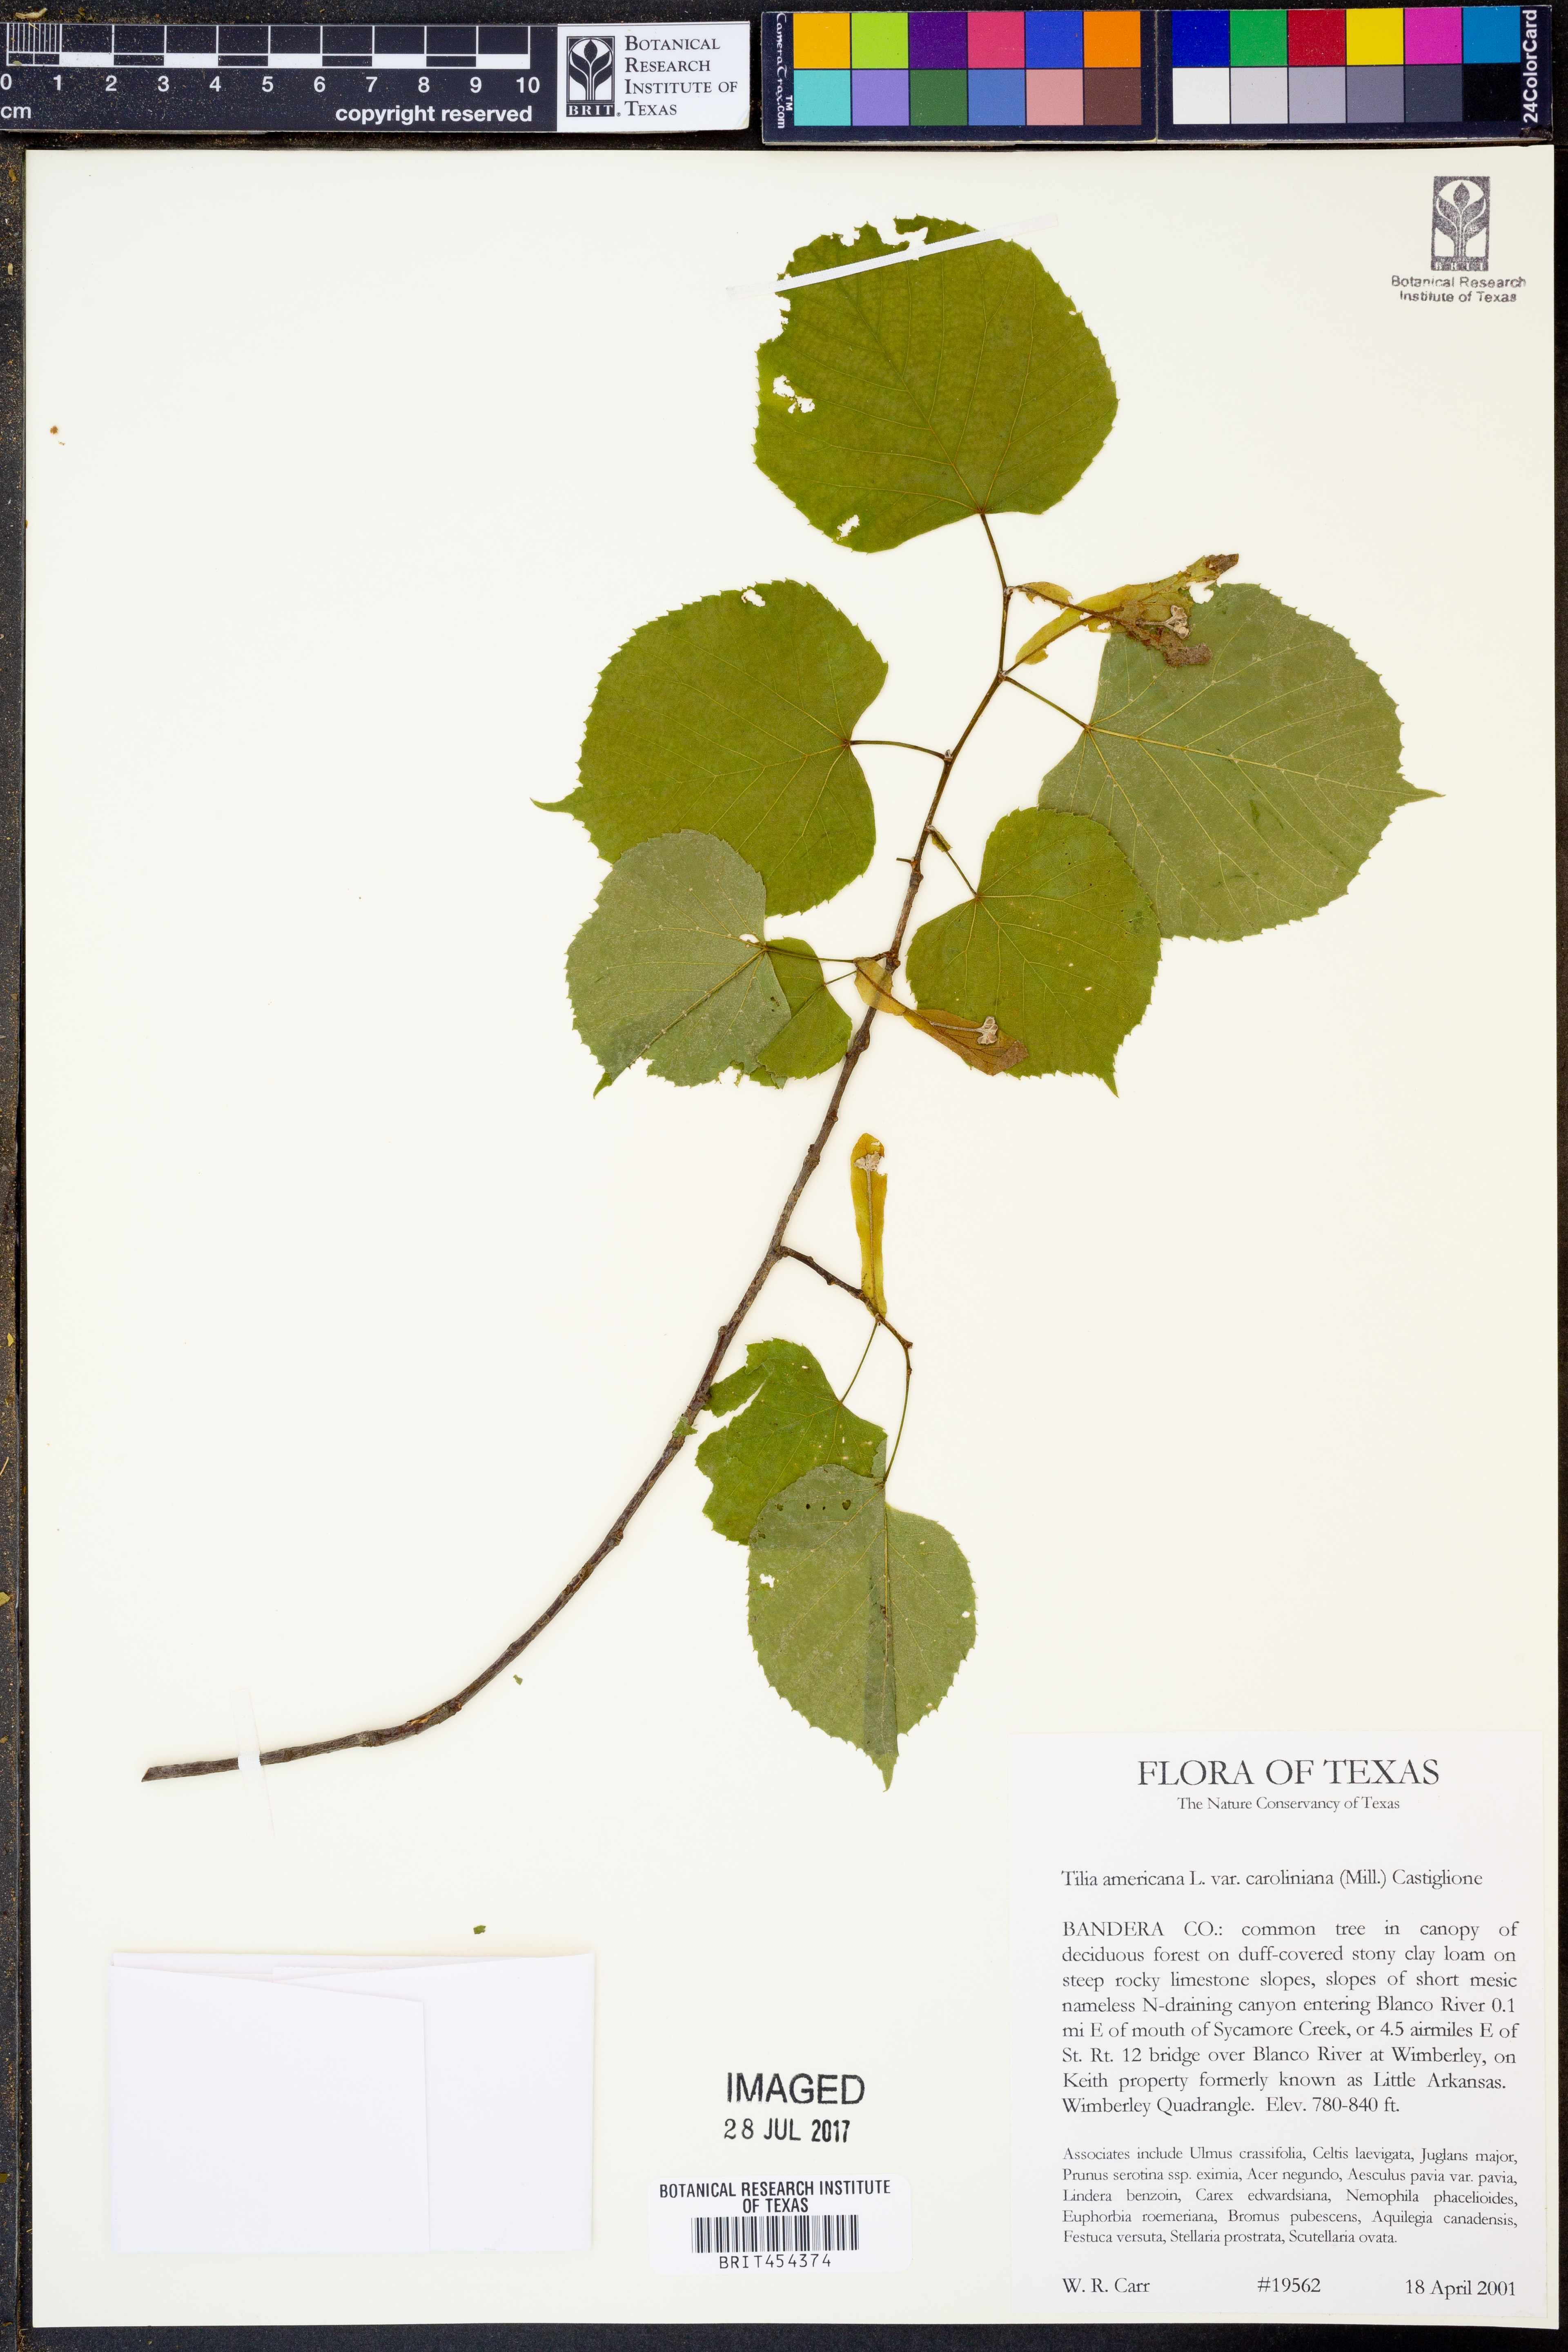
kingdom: Plantae
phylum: Tracheophyta
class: Magnoliopsida
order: Malvales
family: Malvaceae
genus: Tilia
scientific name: Tilia americana
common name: Basswood
